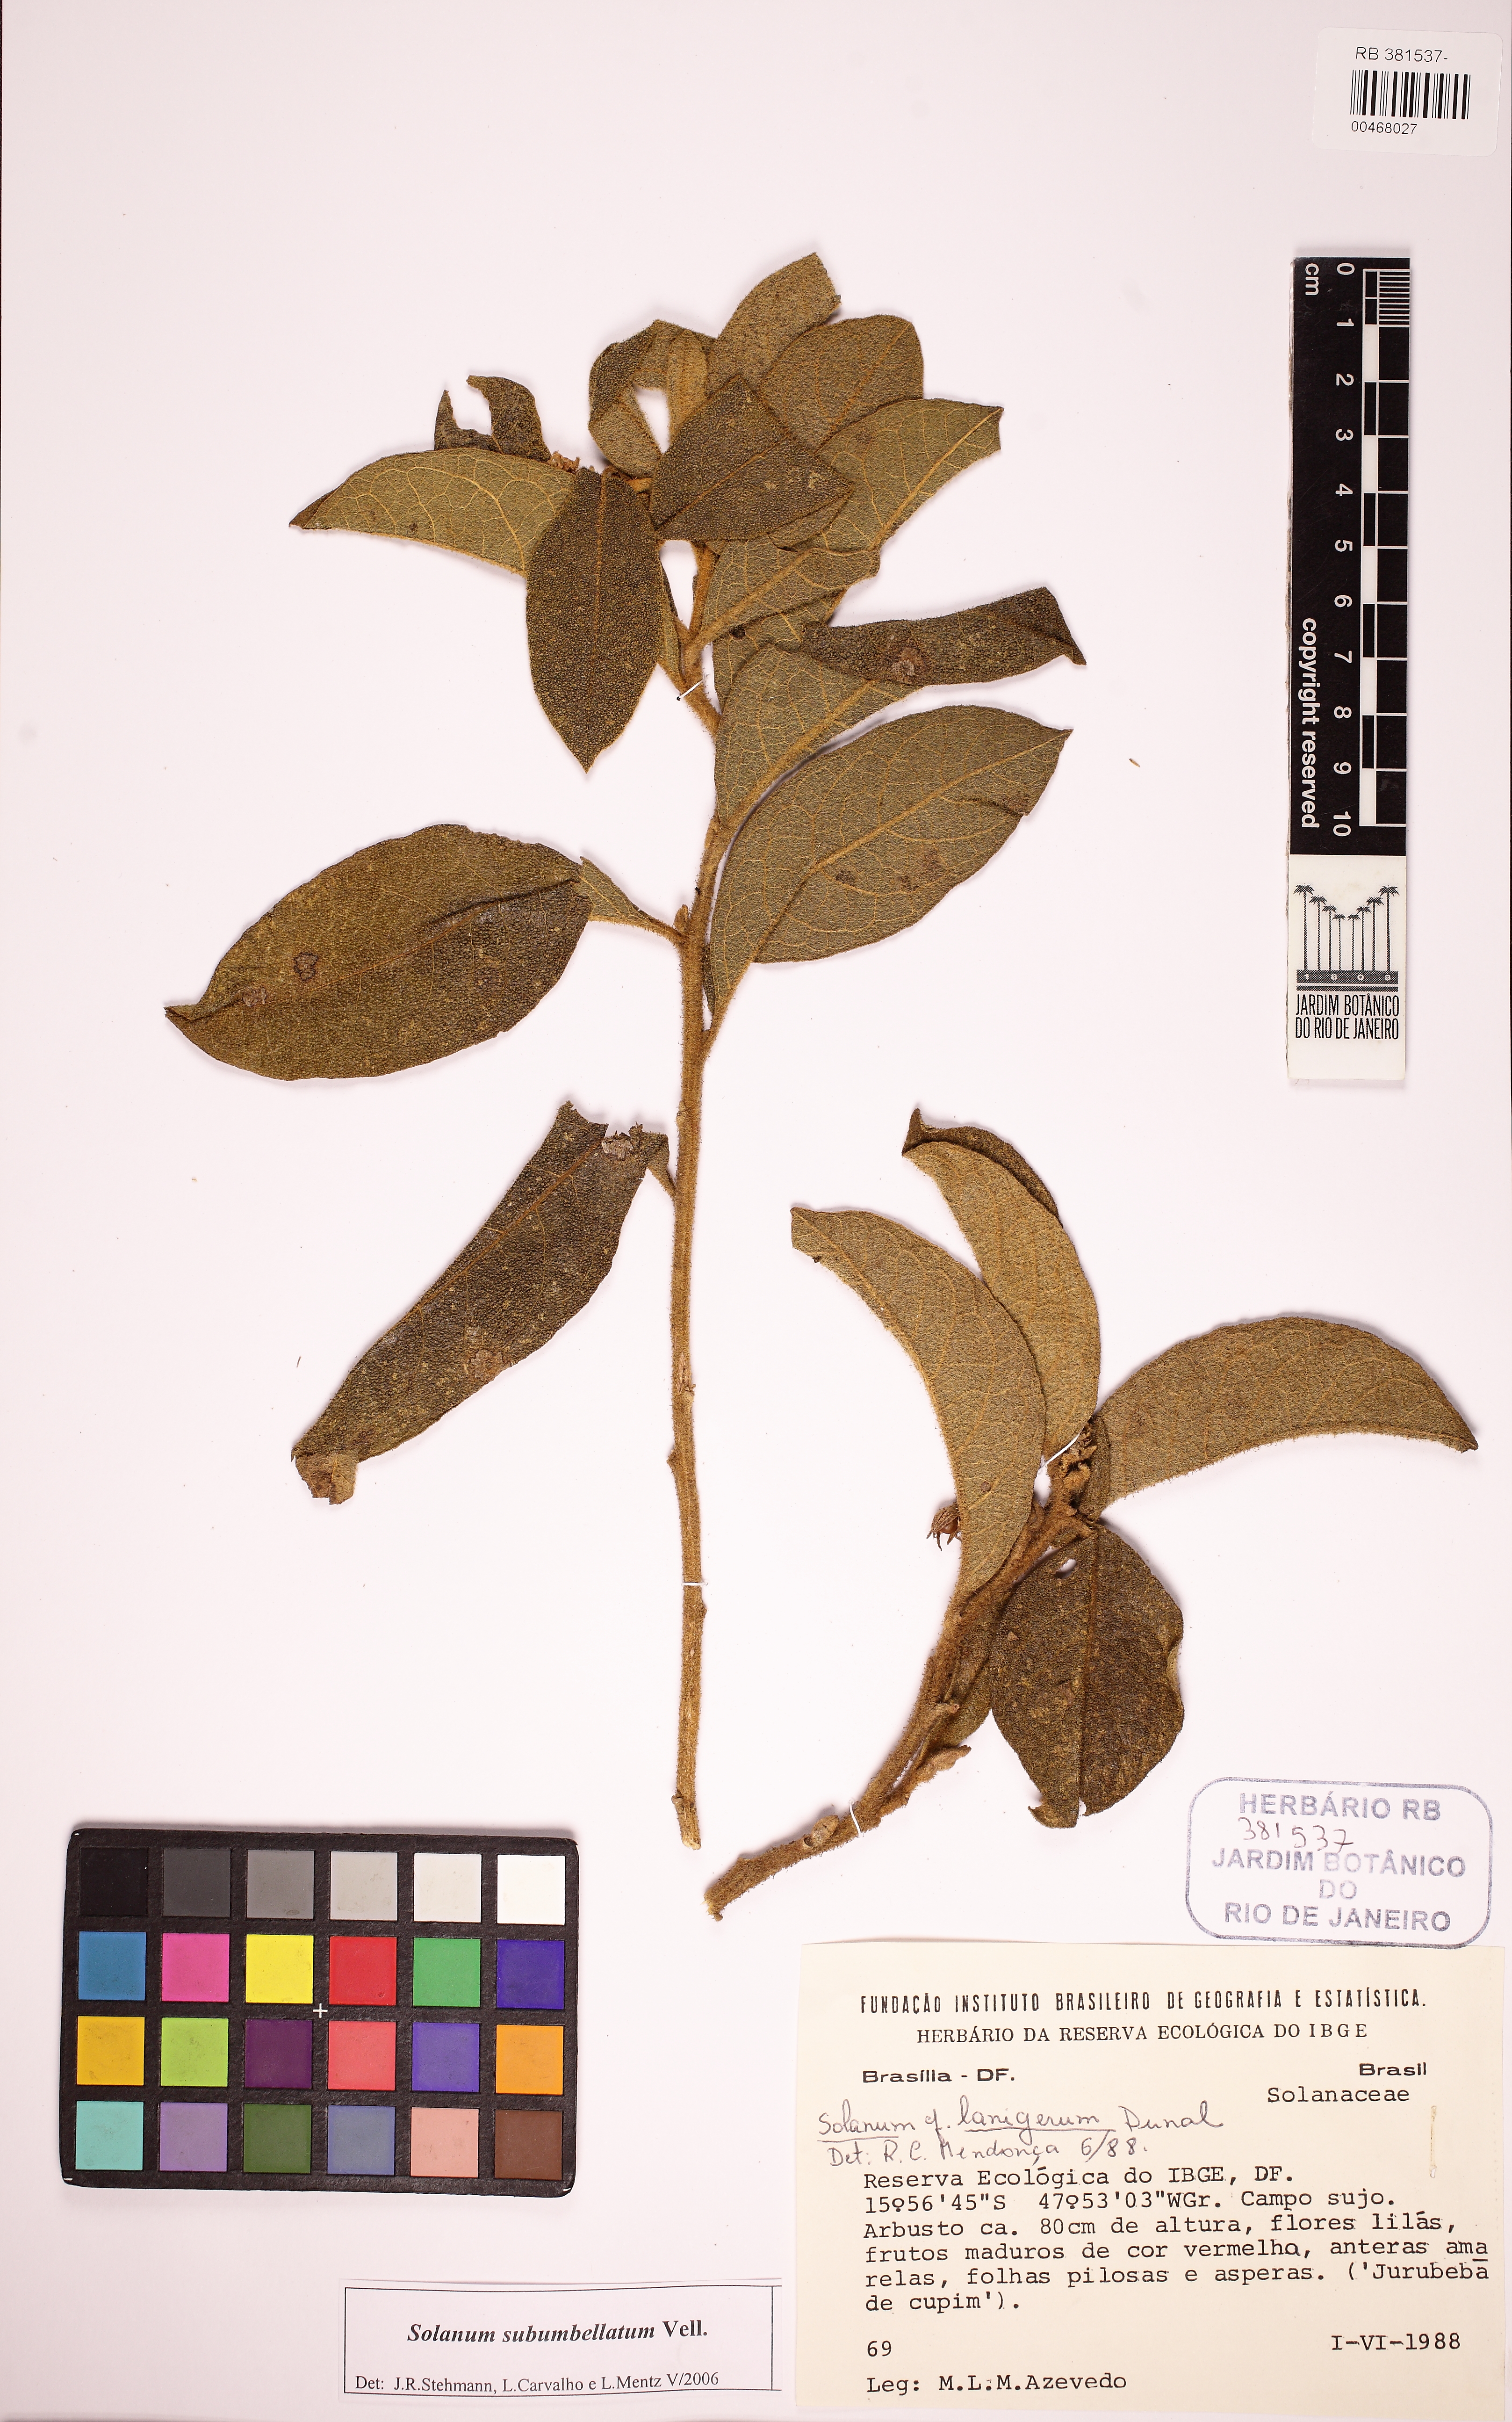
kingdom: Plantae
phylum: Tracheophyta
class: Magnoliopsida
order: Solanales
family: Solanaceae
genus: Solanum
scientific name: Solanum subumbellatum
